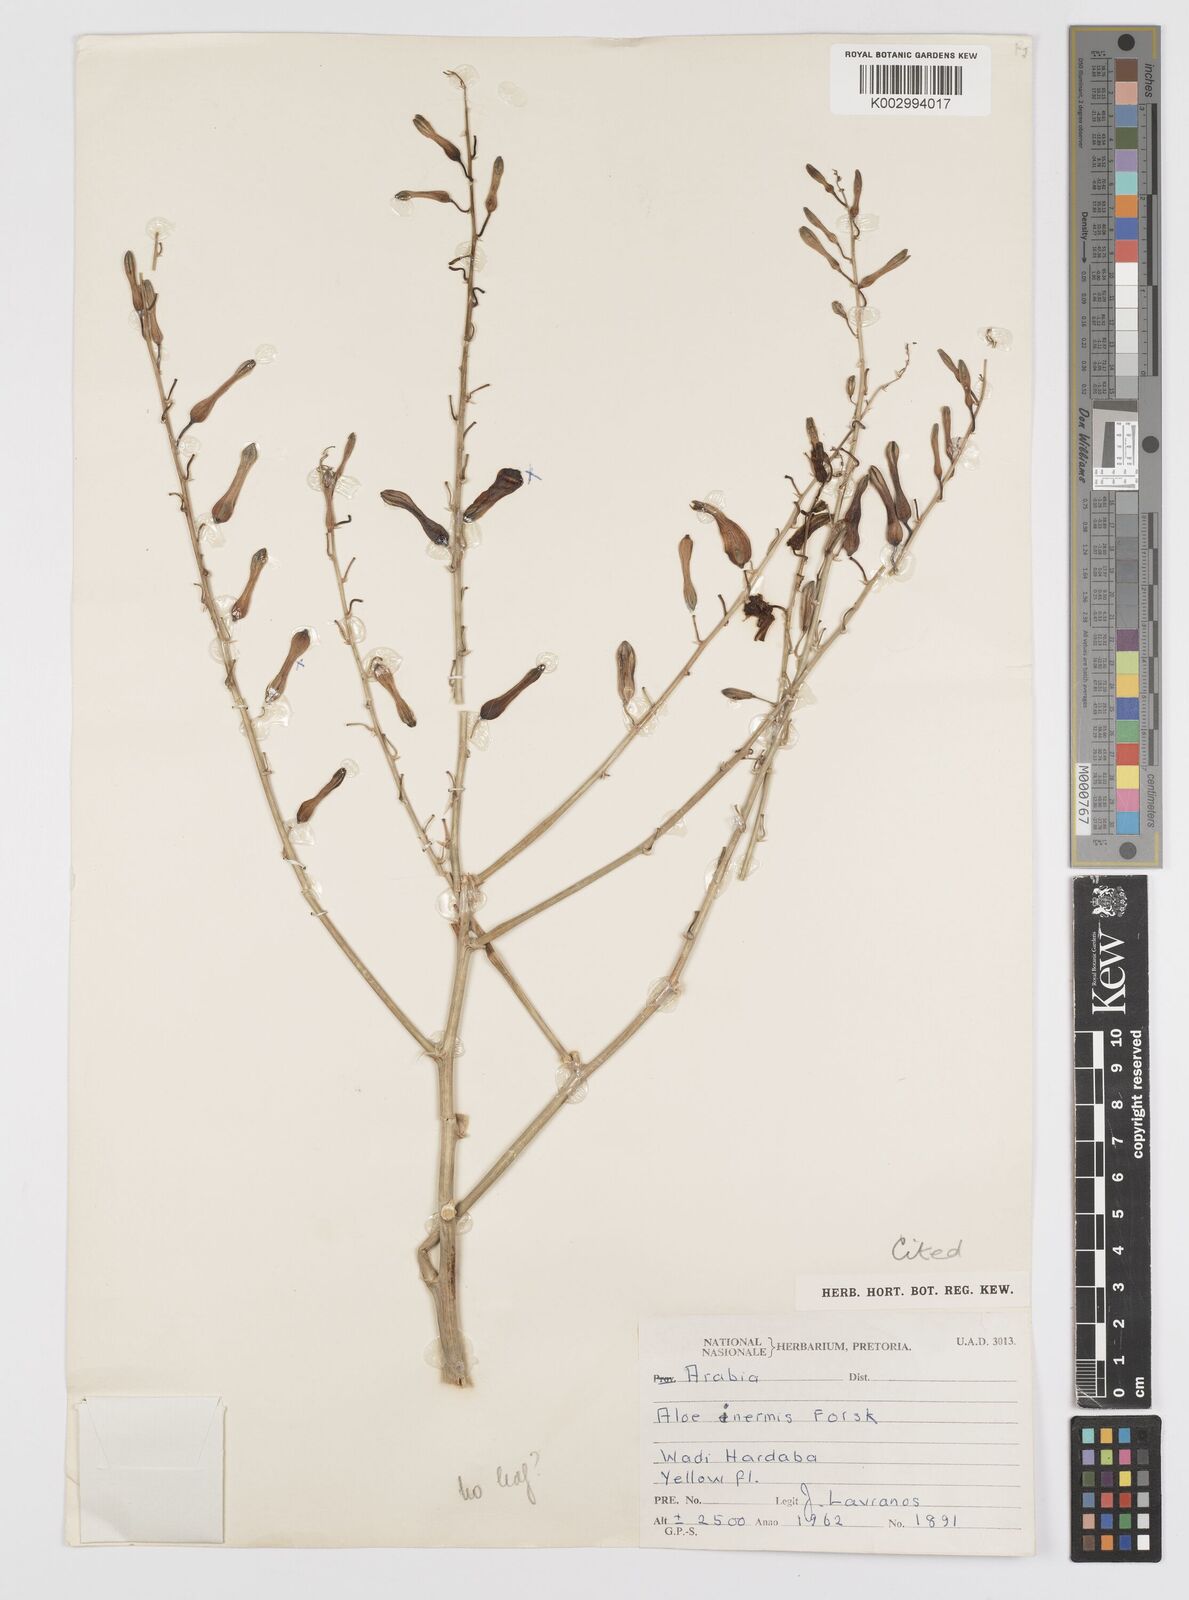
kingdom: Plantae
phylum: Tracheophyta
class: Liliopsida
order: Asparagales
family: Asphodelaceae
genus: Aloe
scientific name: Aloe inermis
